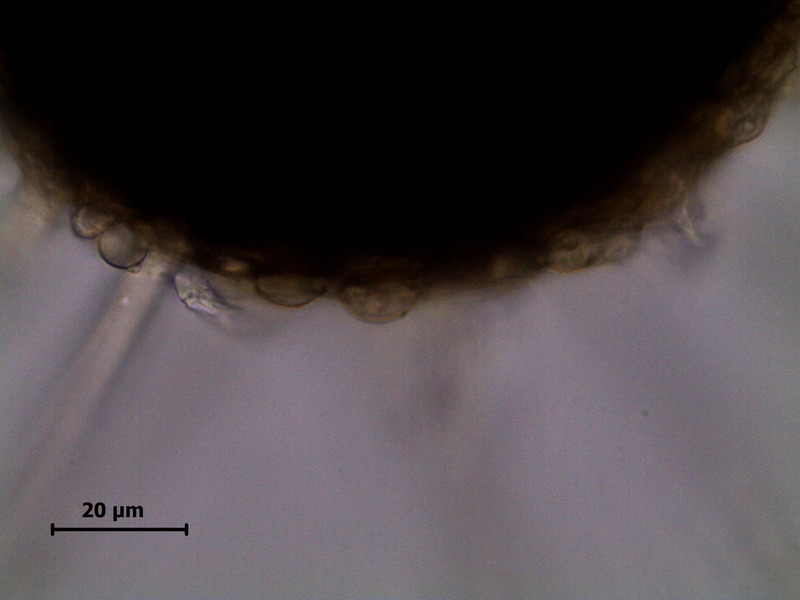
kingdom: Fungi
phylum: Ascomycota
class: Leotiomycetes
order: Helotiales
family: Erysiphaceae
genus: Erysiphe
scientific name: Erysiphe berberidis
